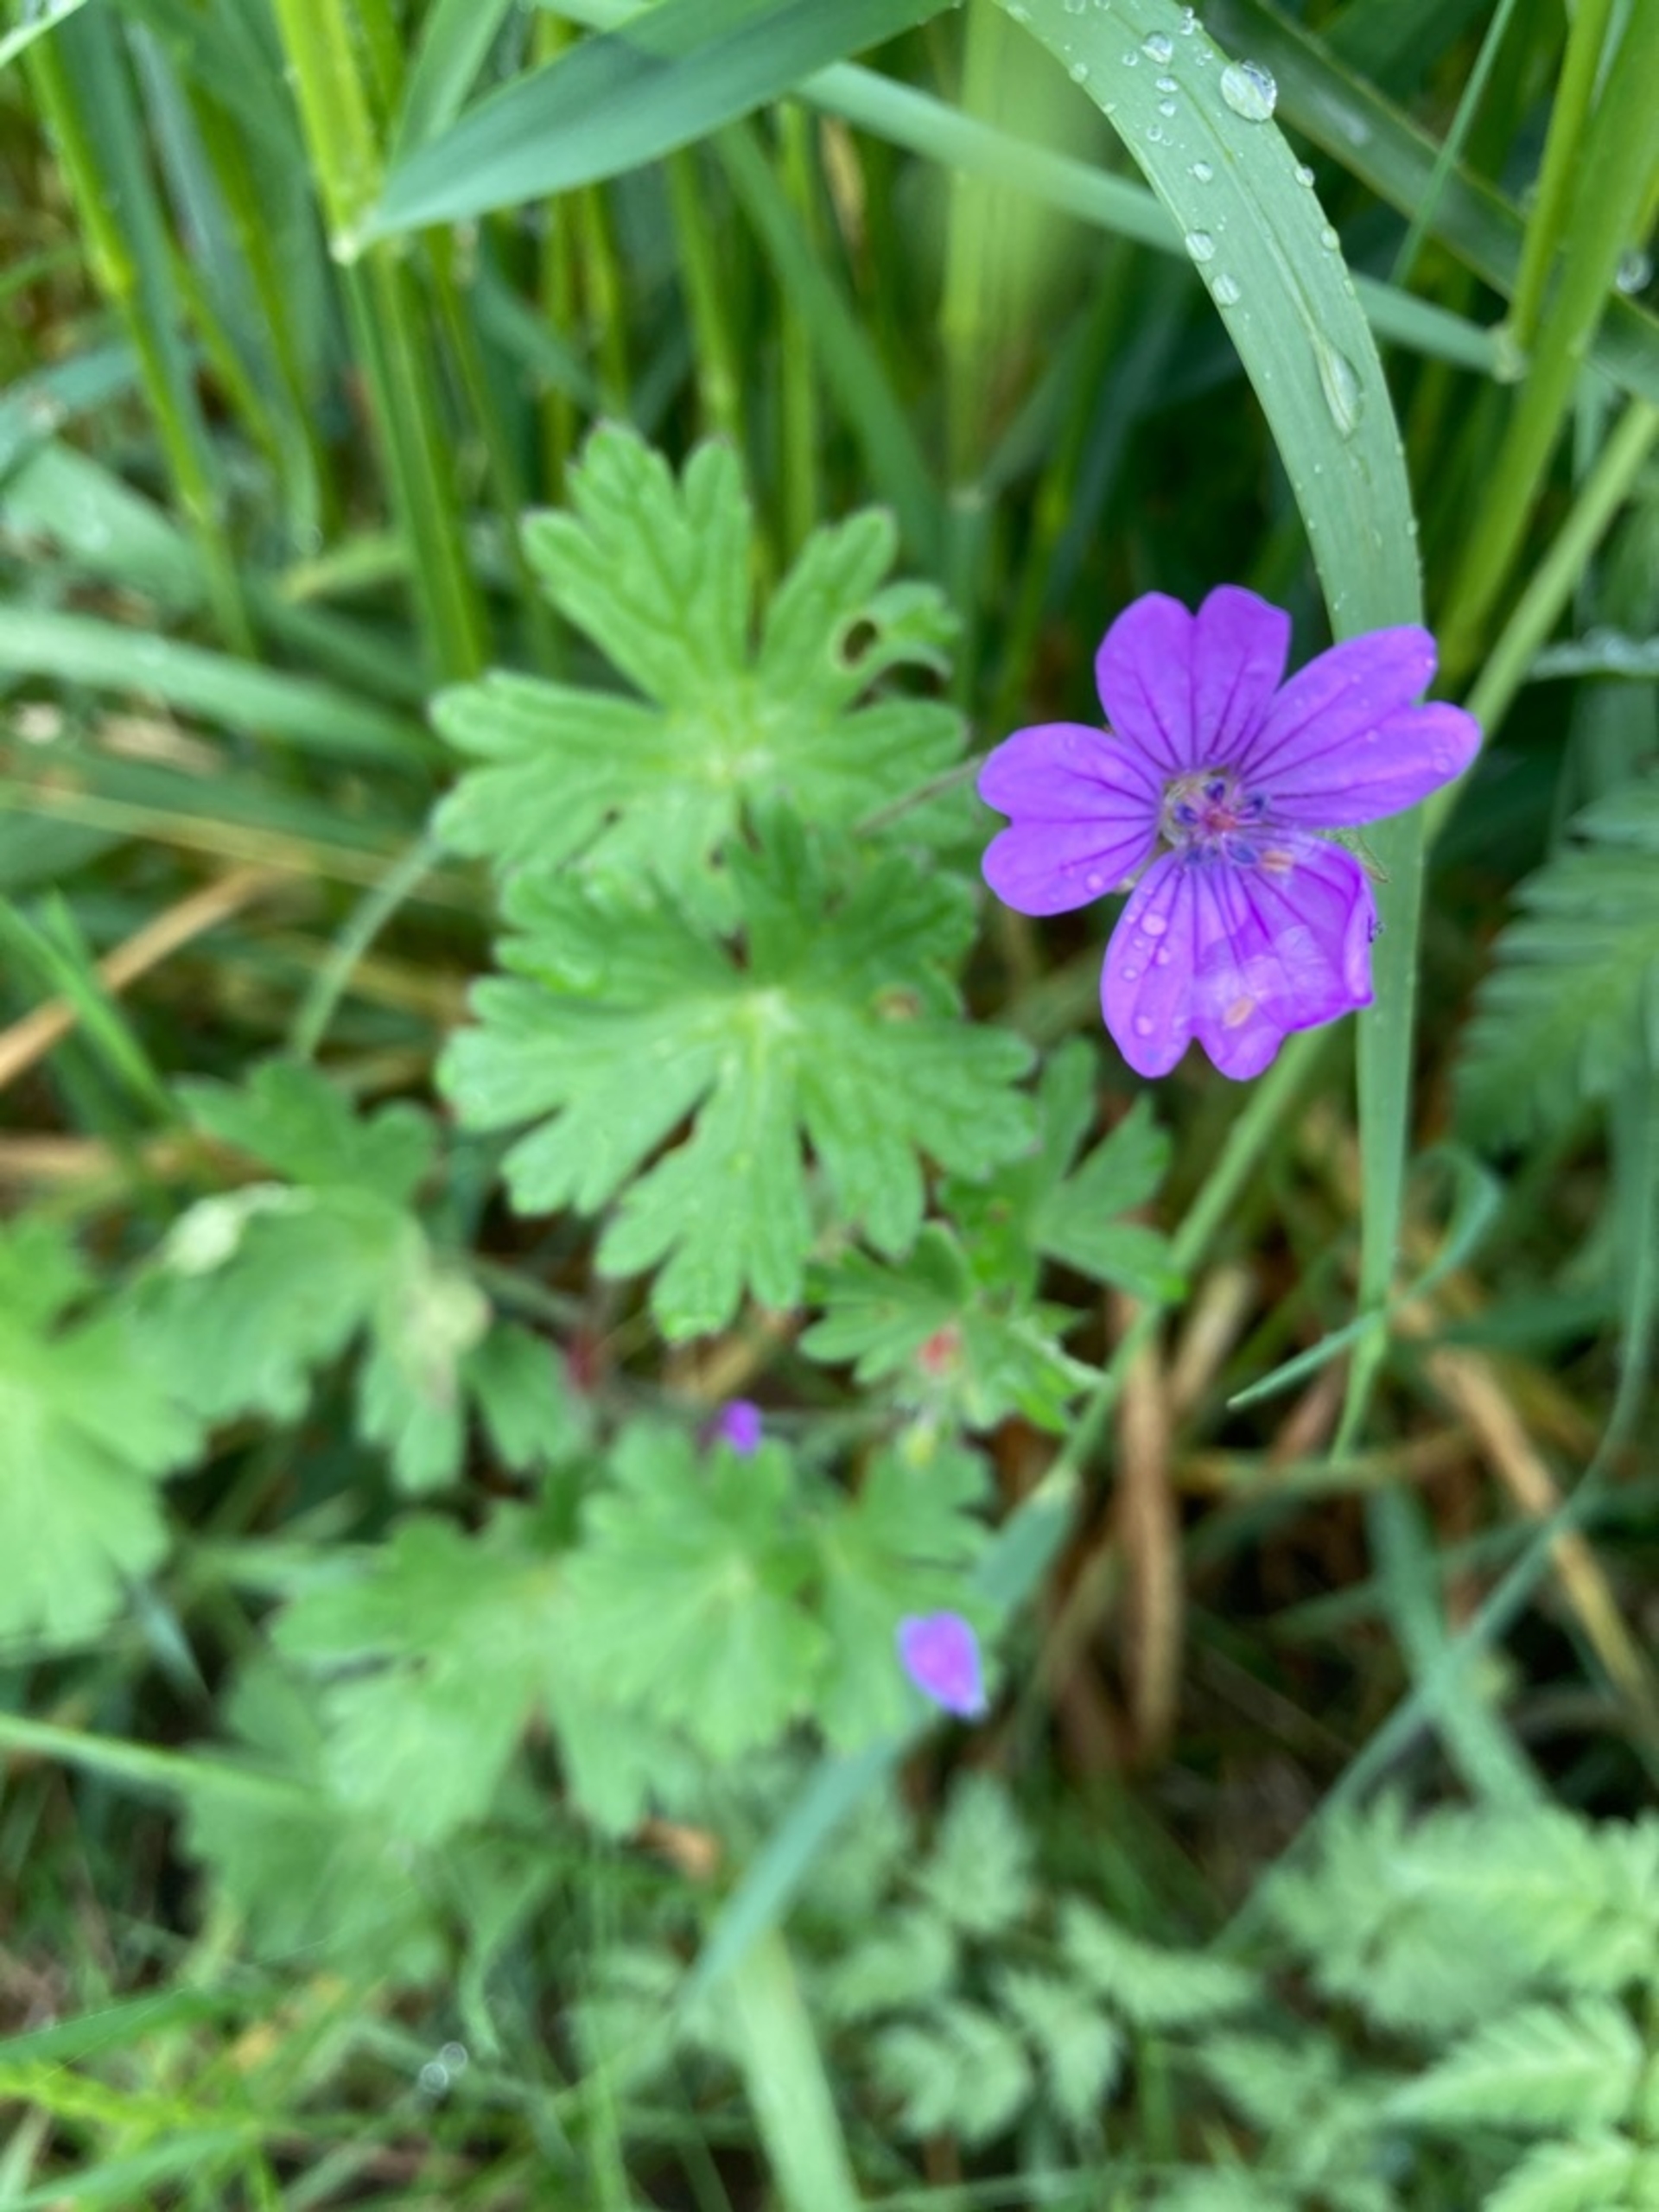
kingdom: Plantae
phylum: Tracheophyta
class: Magnoliopsida
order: Geraniales
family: Geraniaceae
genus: Geranium
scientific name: Geranium pyrenaicum
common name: Pyrenæisk storkenæb
